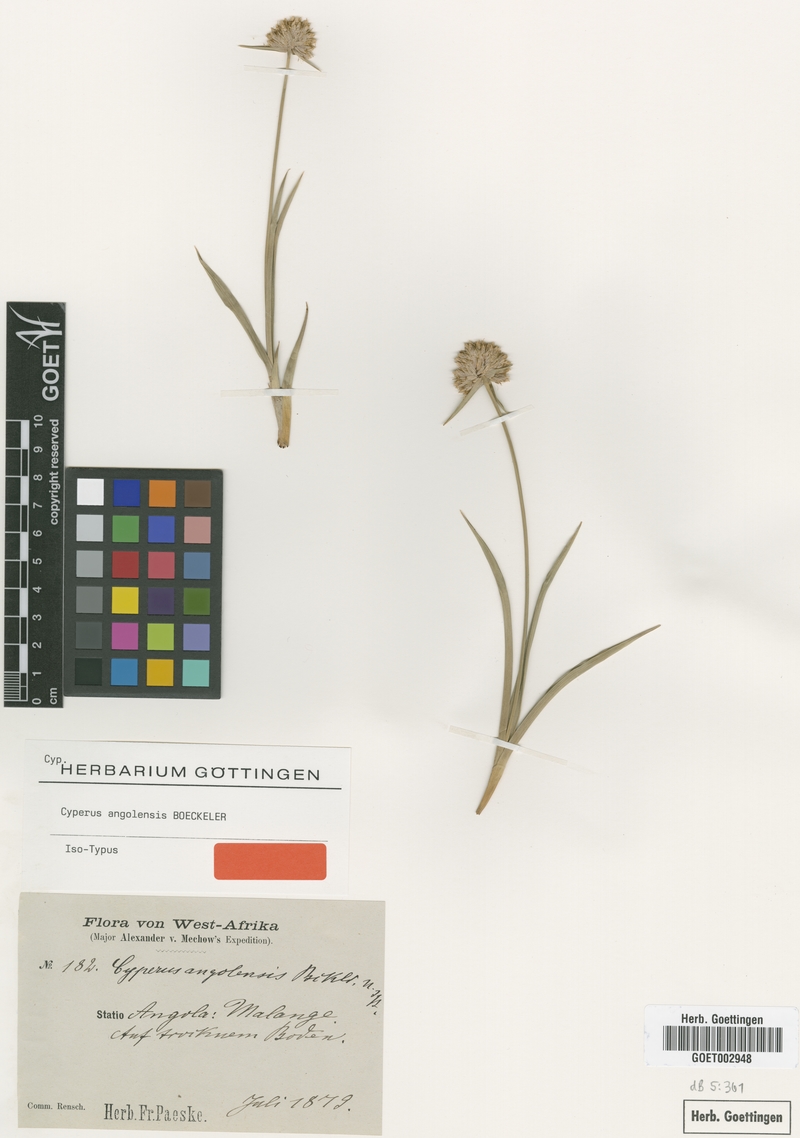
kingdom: Plantae
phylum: Tracheophyta
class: Liliopsida
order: Poales
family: Cyperaceae
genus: Cyperus
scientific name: Cyperus angolensis
